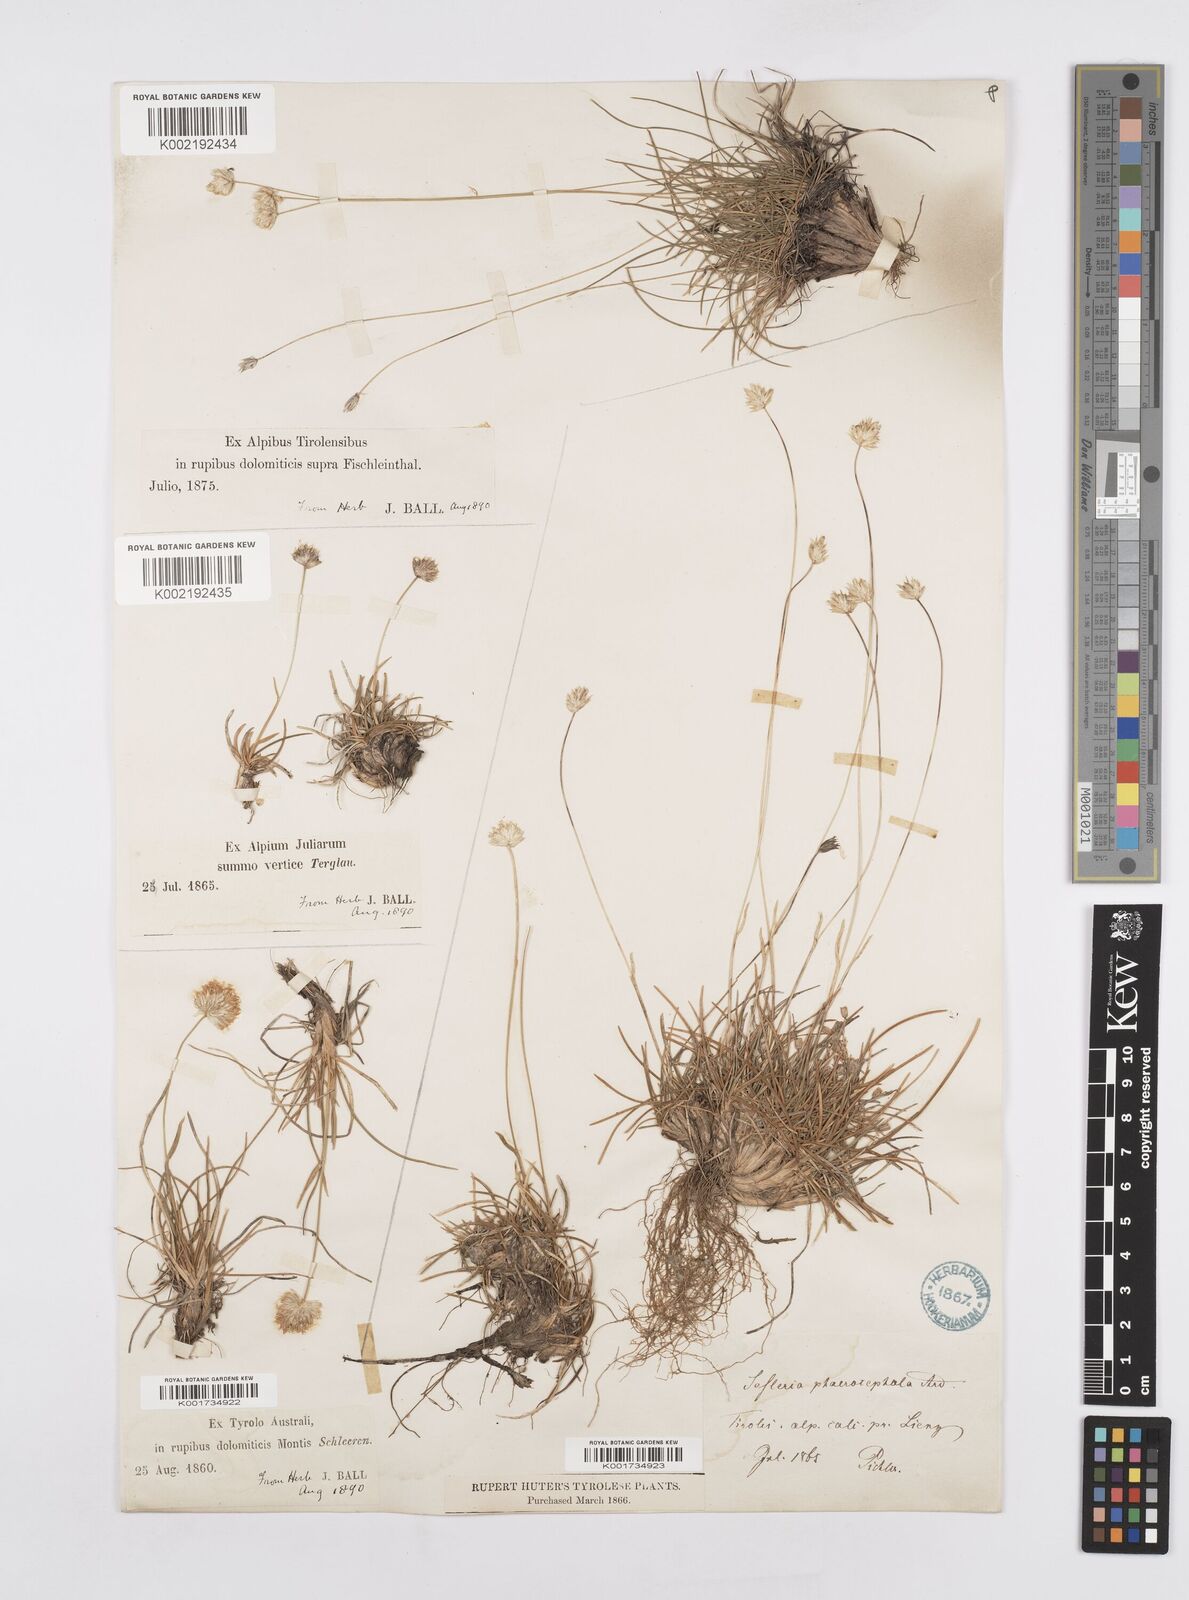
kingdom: Plantae
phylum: Tracheophyta
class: Liliopsida
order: Poales
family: Poaceae
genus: Sesleriella
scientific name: Sesleriella sphaerocephala
